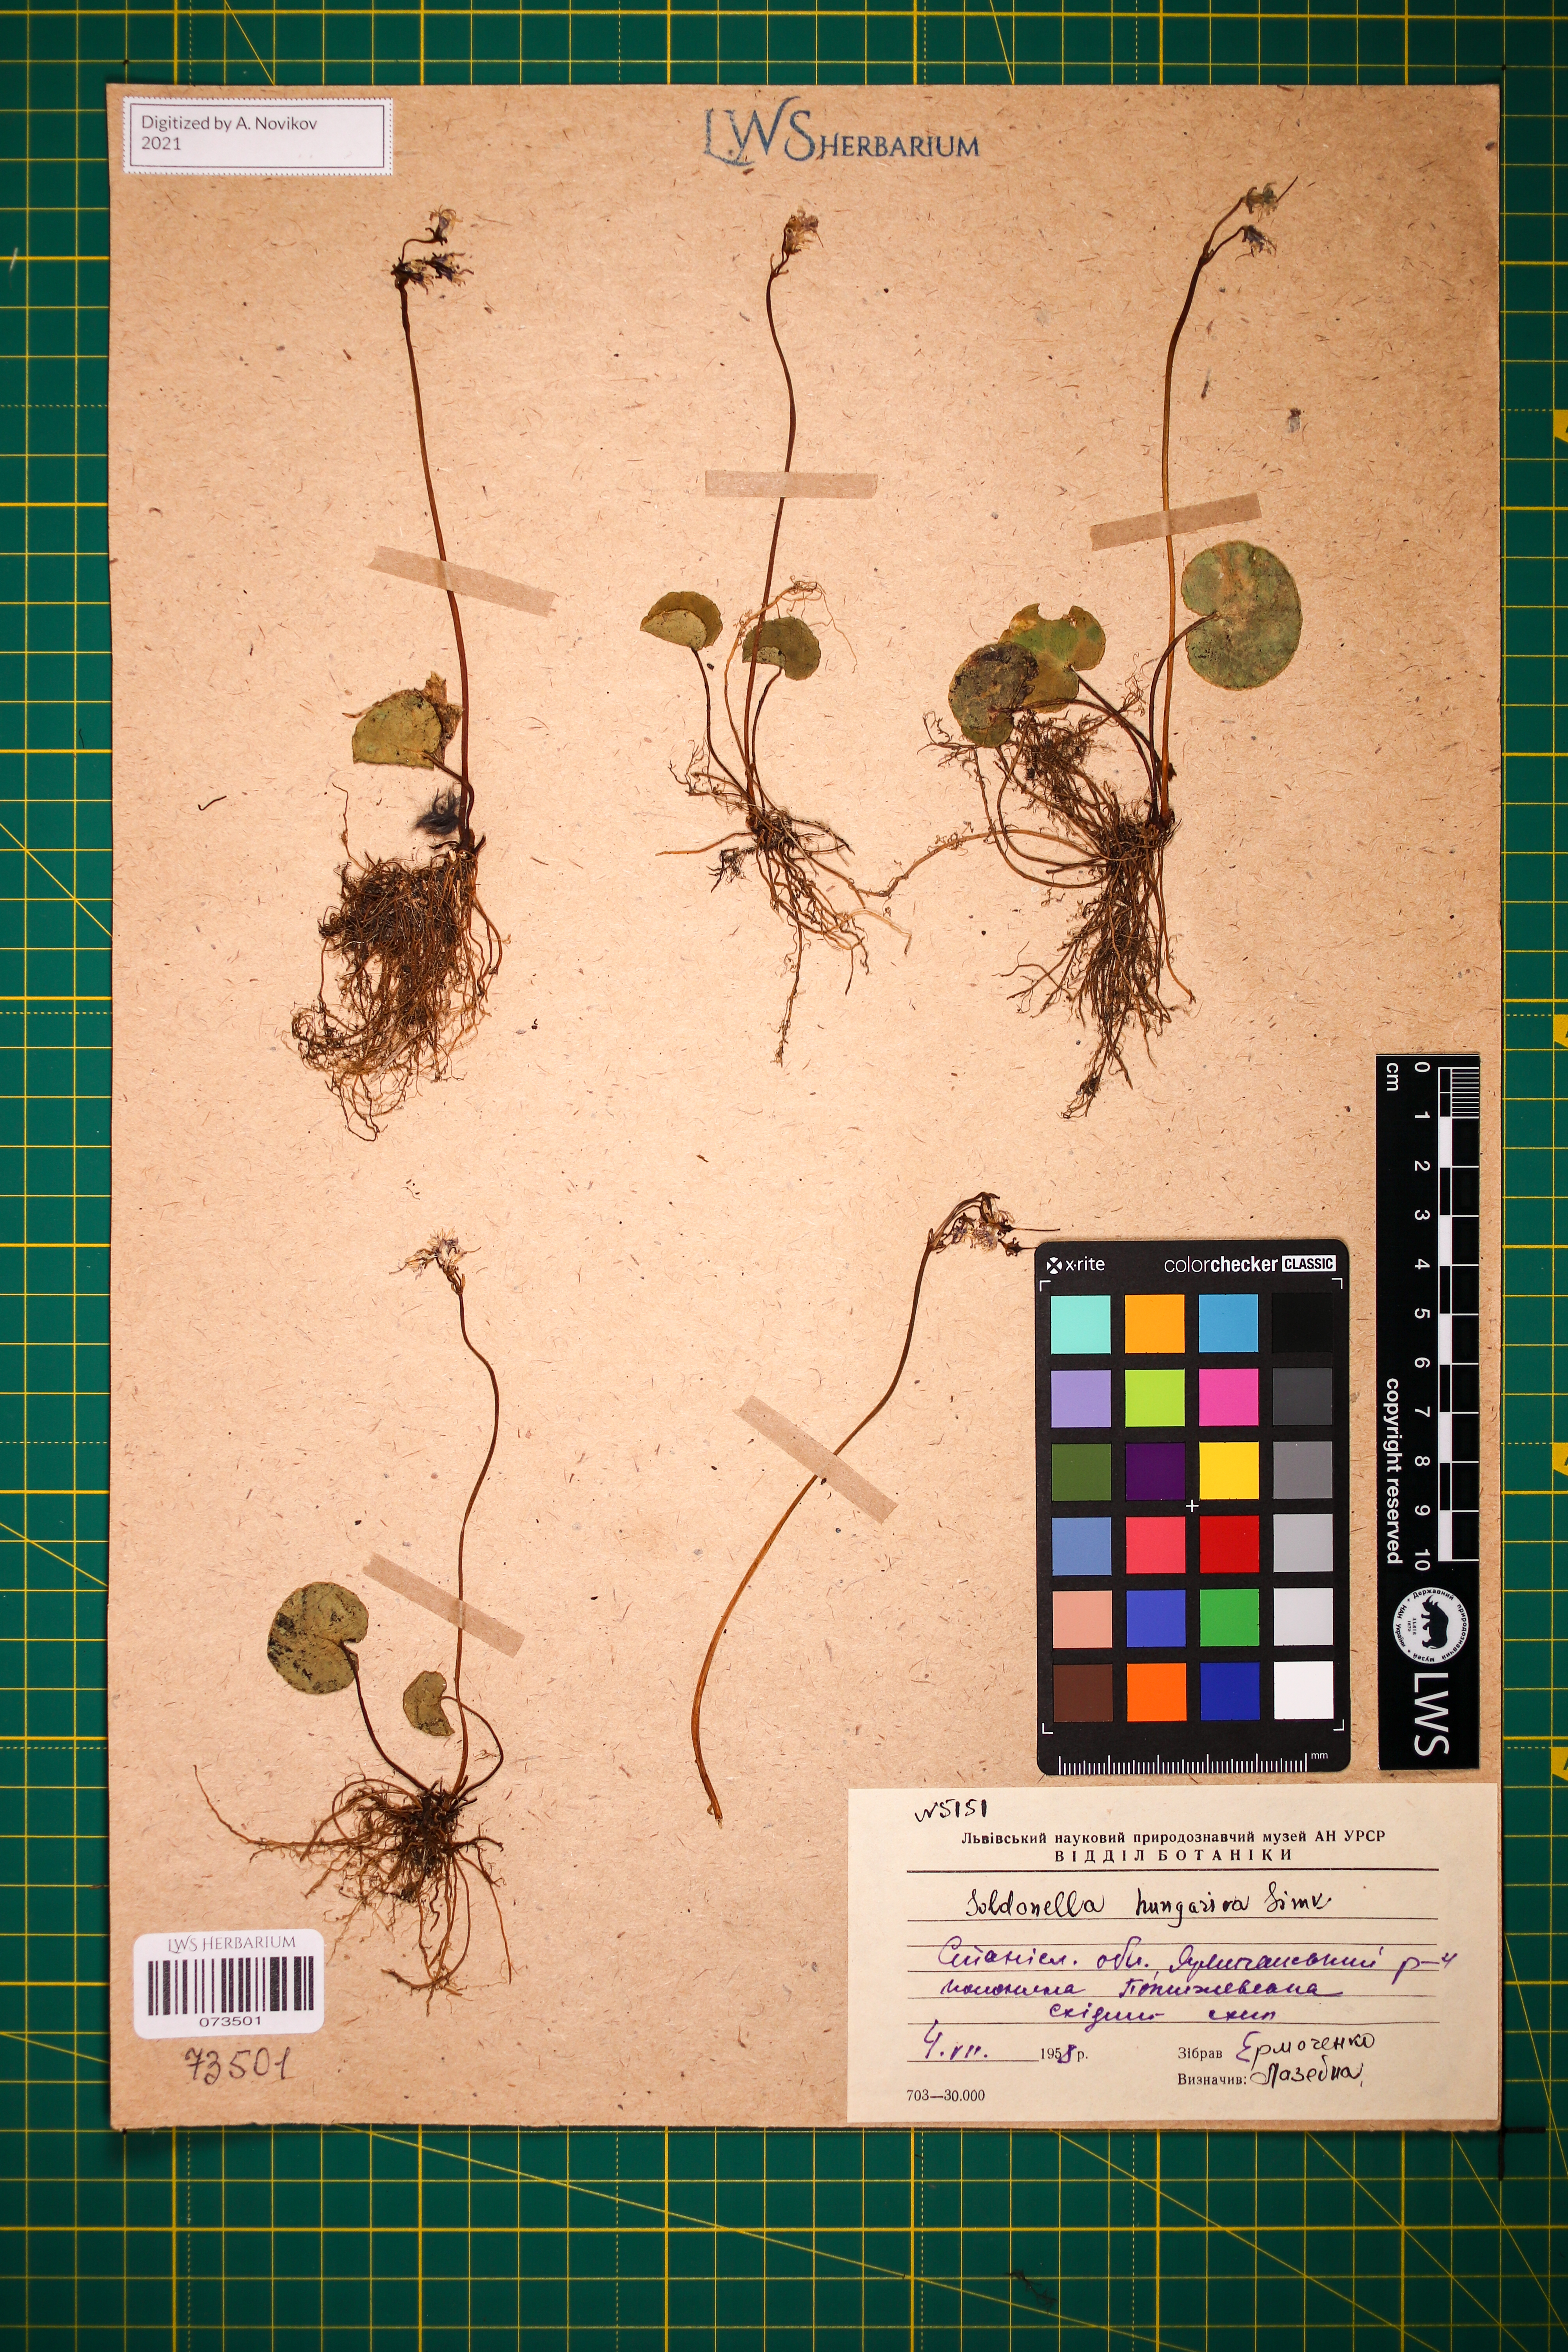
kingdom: Plantae
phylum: Tracheophyta
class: Magnoliopsida
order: Ericales
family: Primulaceae
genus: Soldanella
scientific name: Soldanella hungarica
